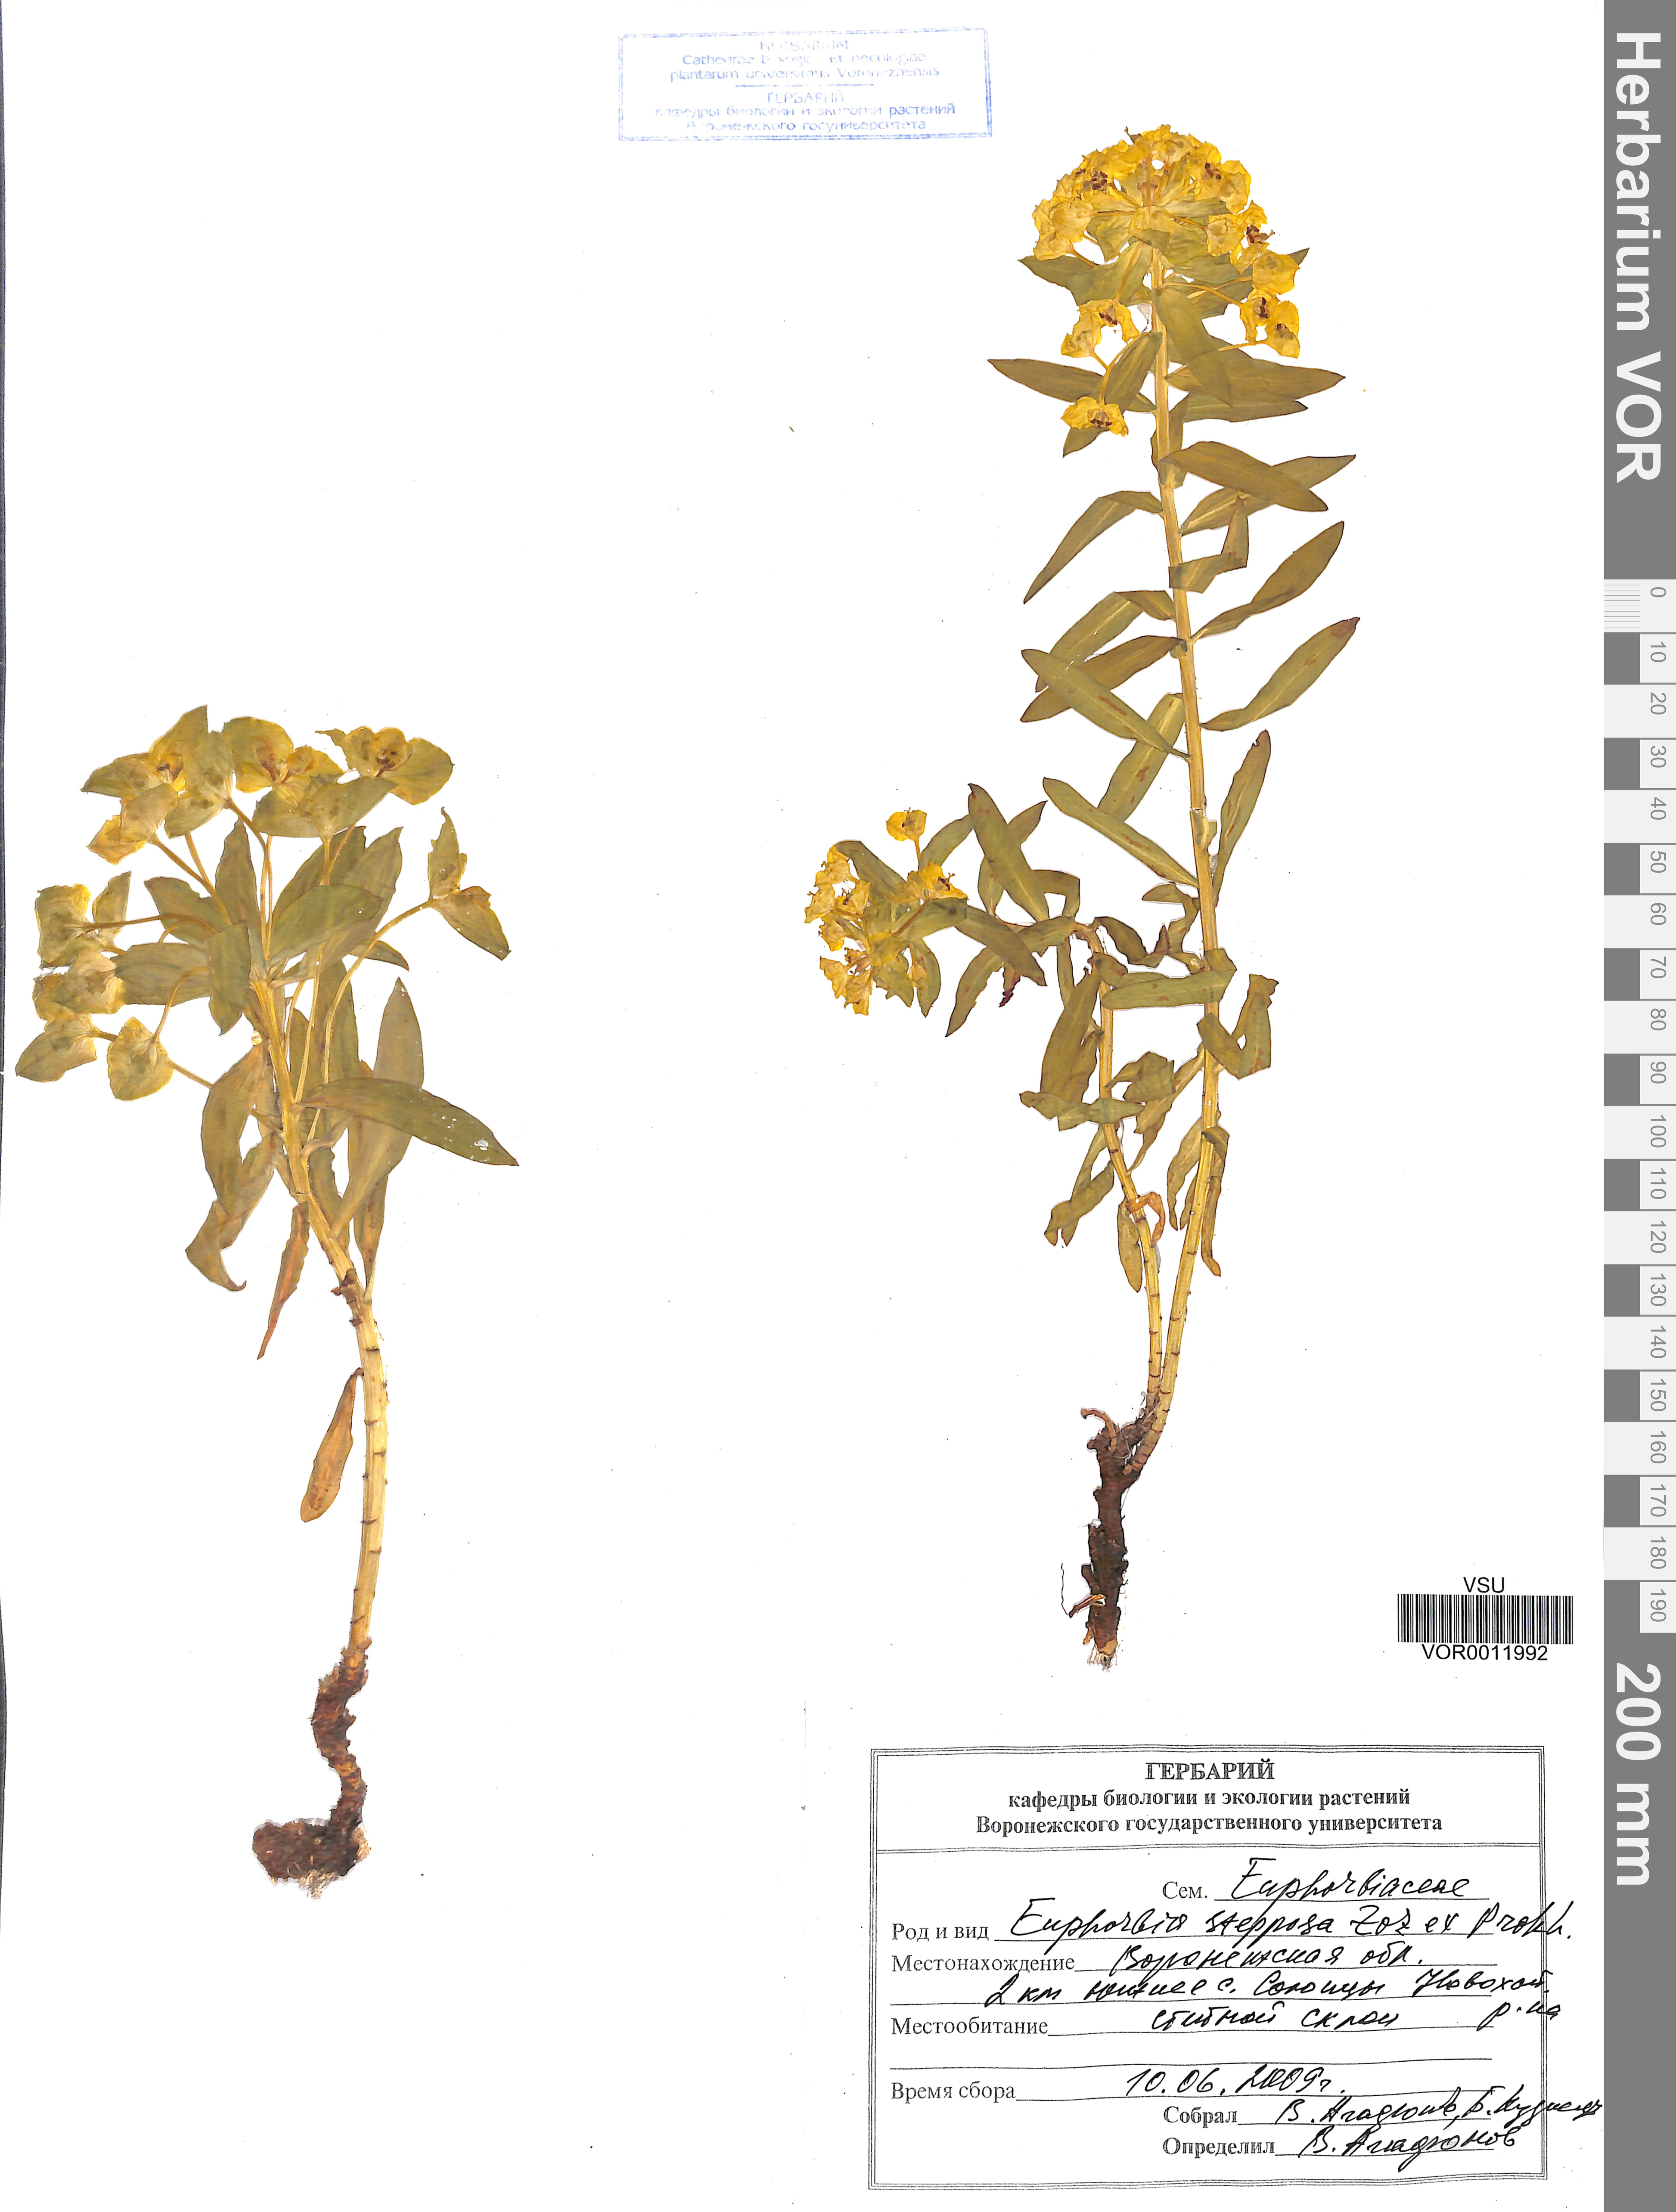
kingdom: Plantae
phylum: Tracheophyta
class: Magnoliopsida
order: Malpighiales
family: Euphorbiaceae
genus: Euphorbia
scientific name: Euphorbia stepposa
